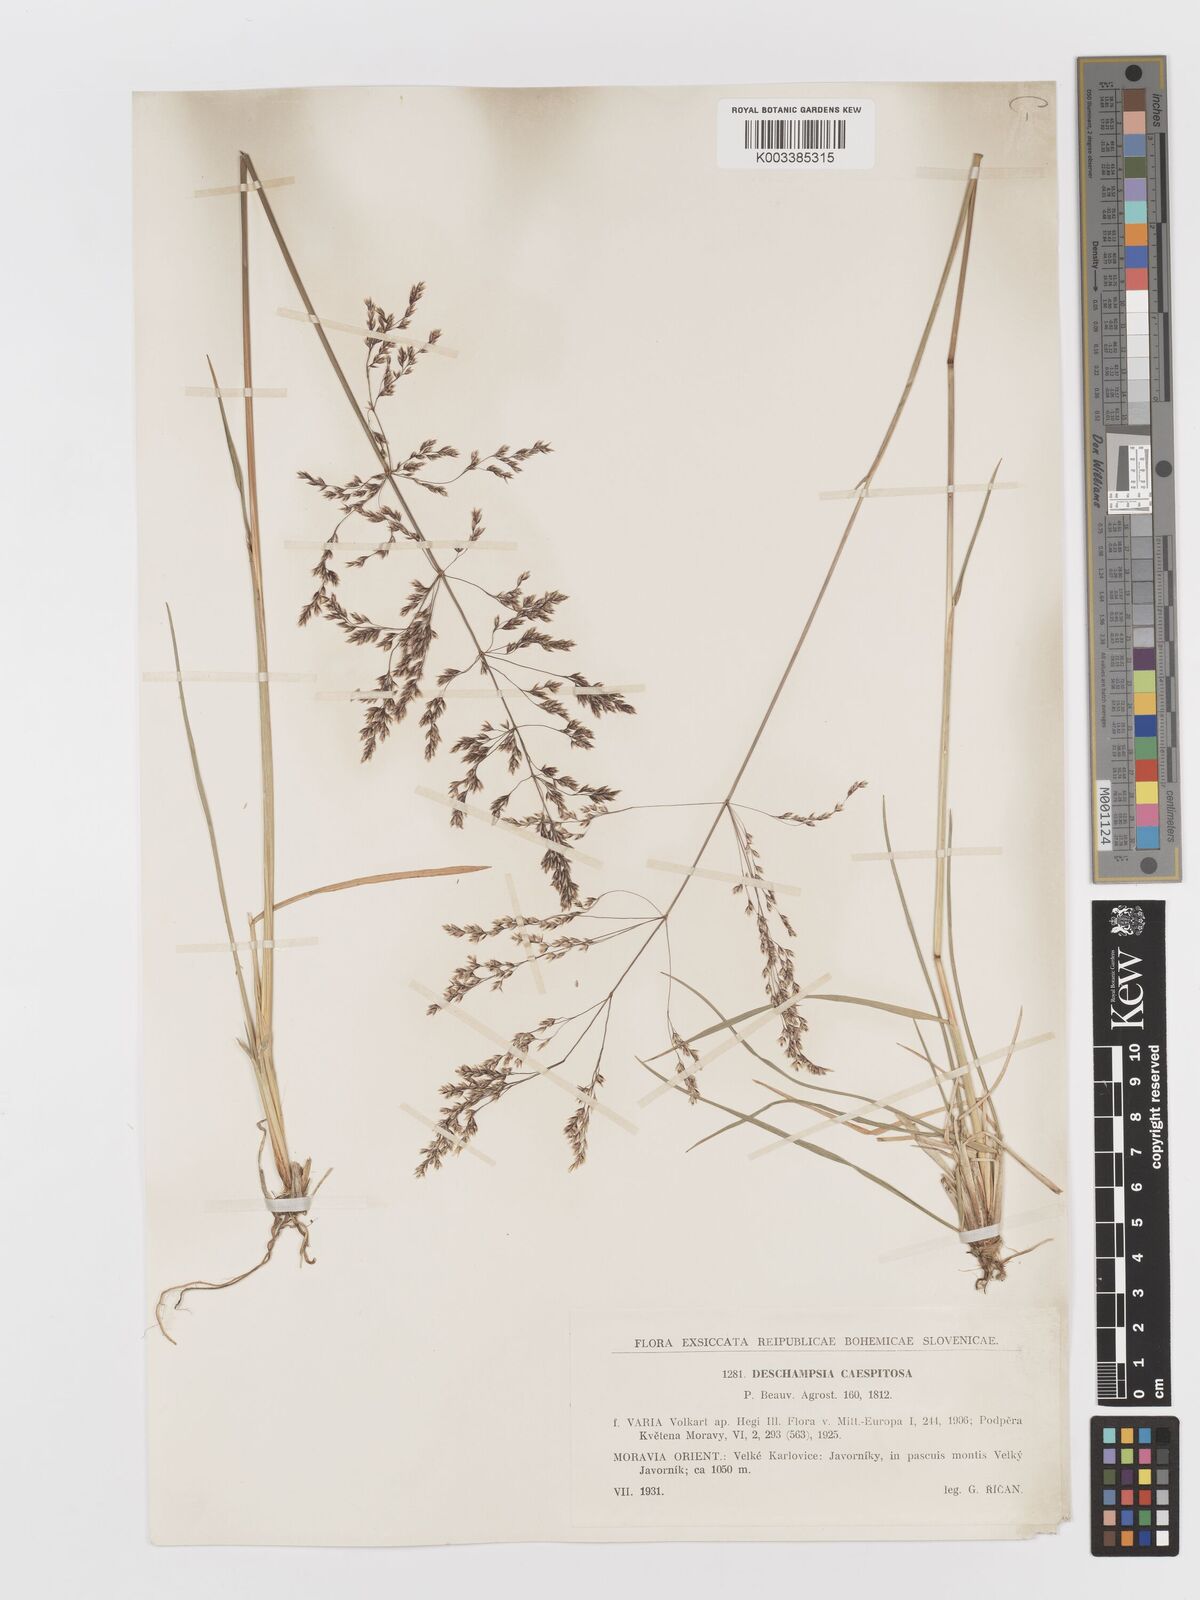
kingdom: Plantae
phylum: Tracheophyta
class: Liliopsida
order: Poales
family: Poaceae
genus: Deschampsia
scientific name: Deschampsia cespitosa
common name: Tufted hair-grass
